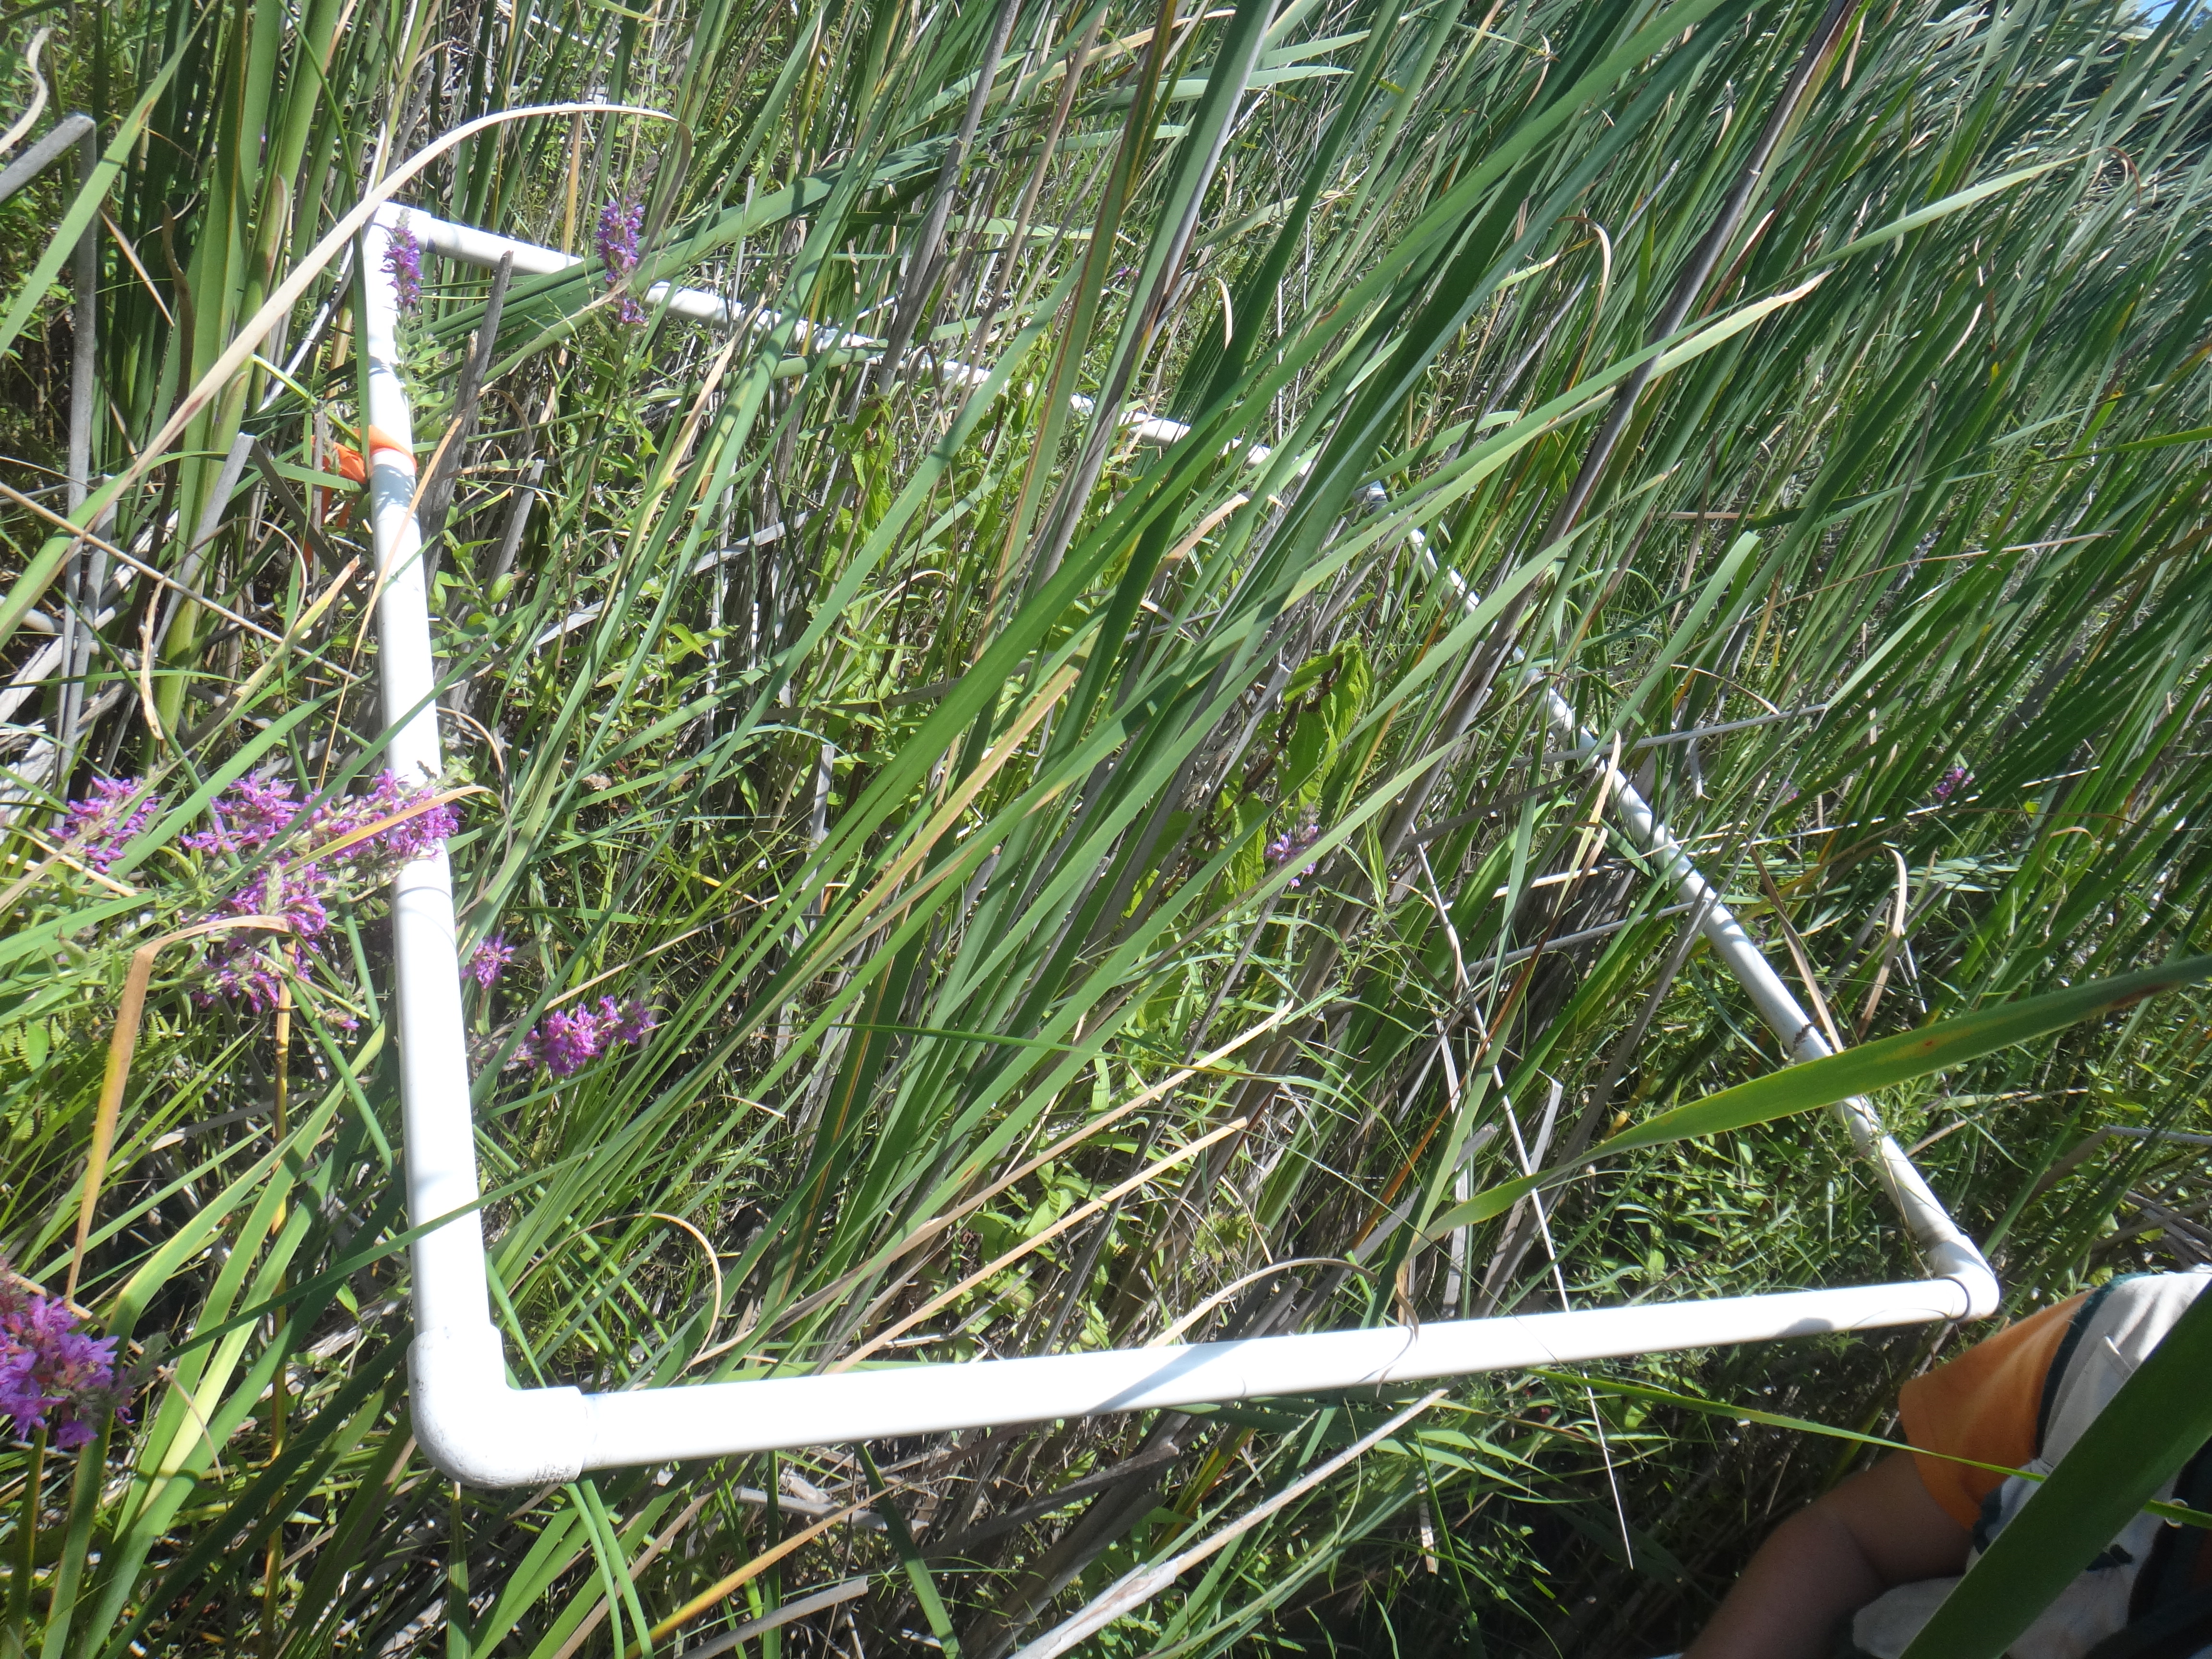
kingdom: Plantae
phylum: Tracheophyta
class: Magnoliopsida
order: Myrtales
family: Lythraceae
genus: Lythrum
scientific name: Lythrum salicaria
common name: Purple loosestrife
